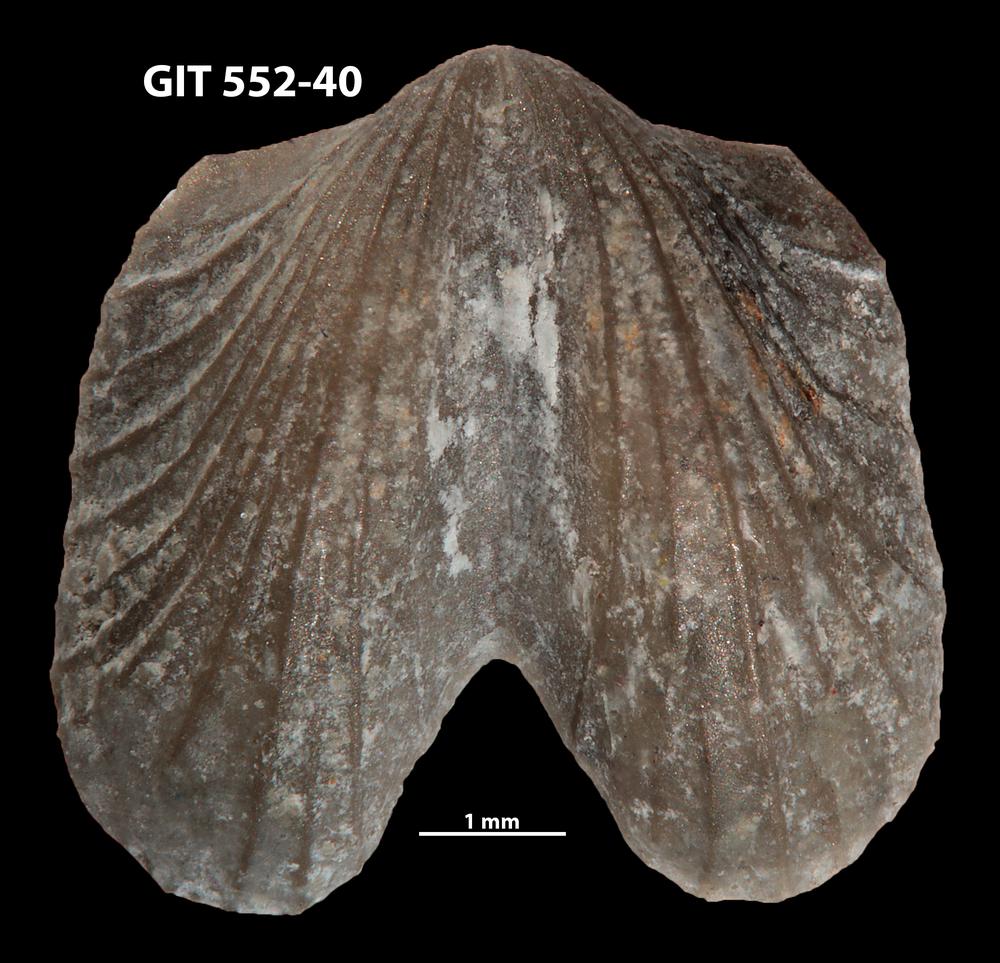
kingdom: Animalia
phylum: Brachiopoda
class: Rhynchonellata
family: Dicoelosiidae
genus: Dicoelosia
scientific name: Dicoelosia paralata
